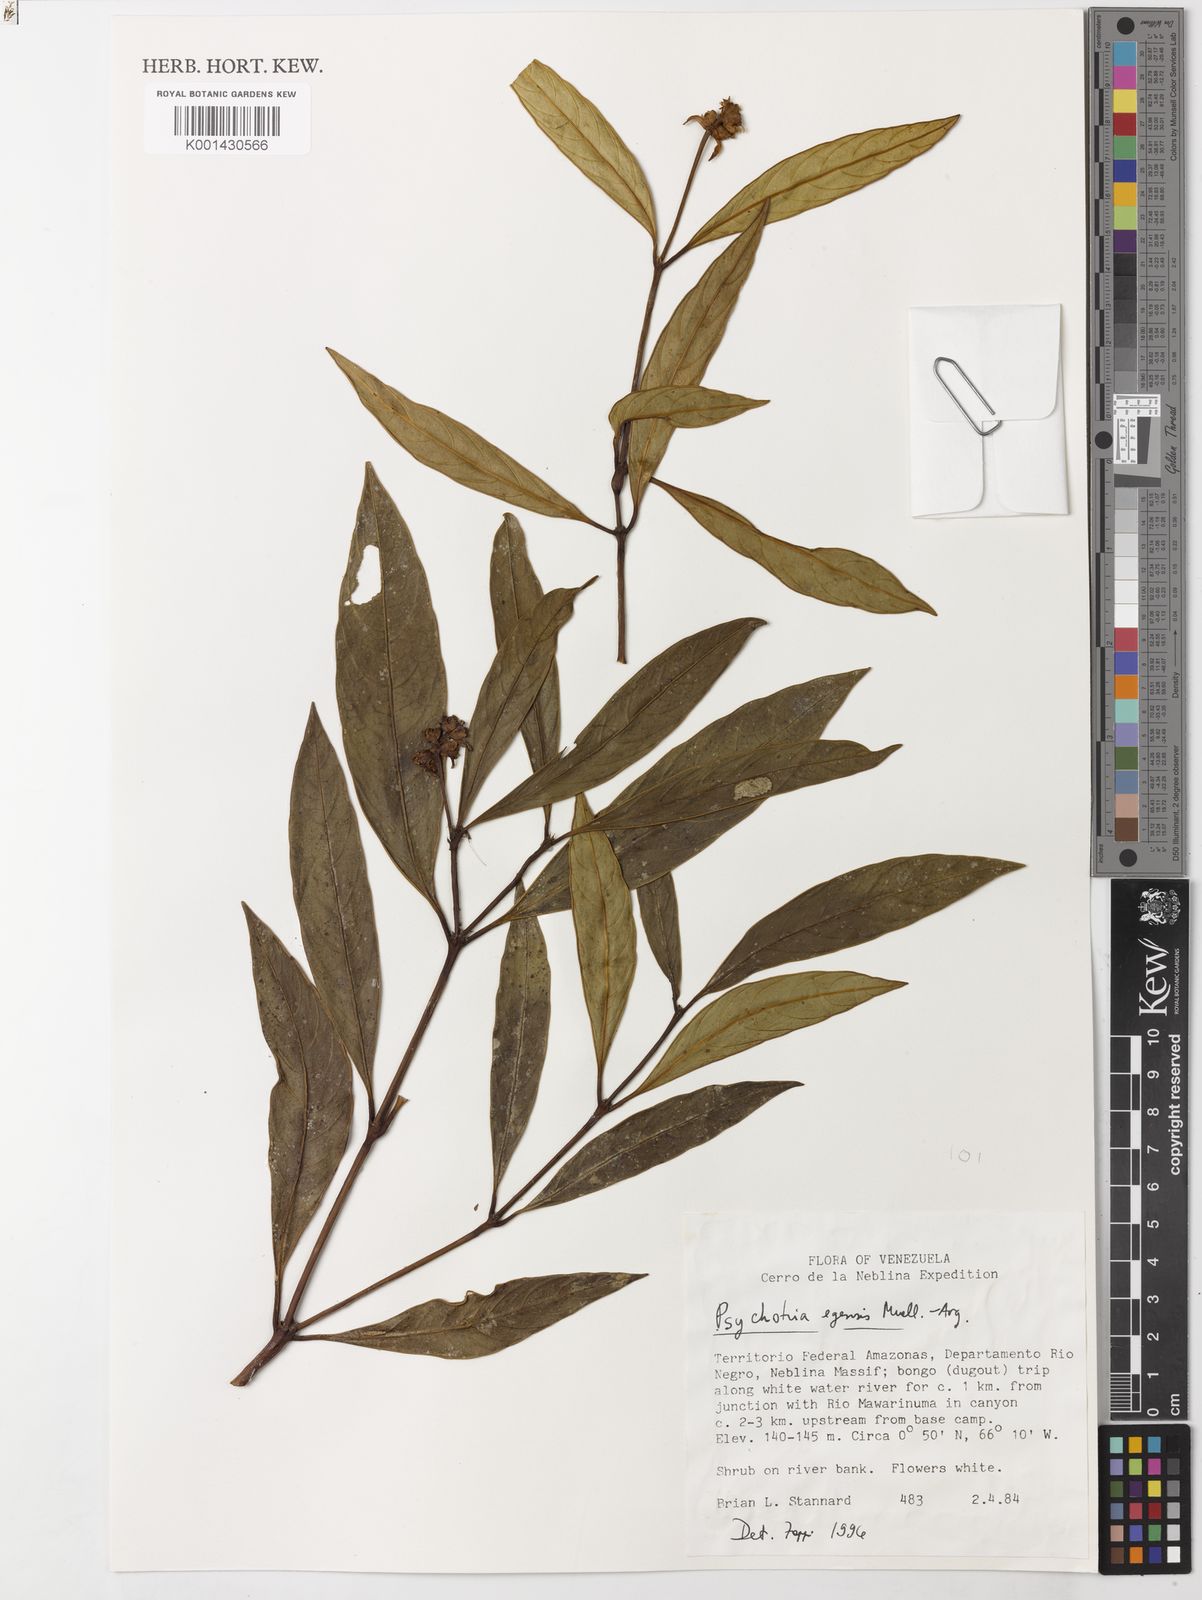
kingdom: Plantae
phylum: Tracheophyta
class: Magnoliopsida
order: Gentianales
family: Rubiaceae
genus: Psychotria
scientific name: Psychotria
